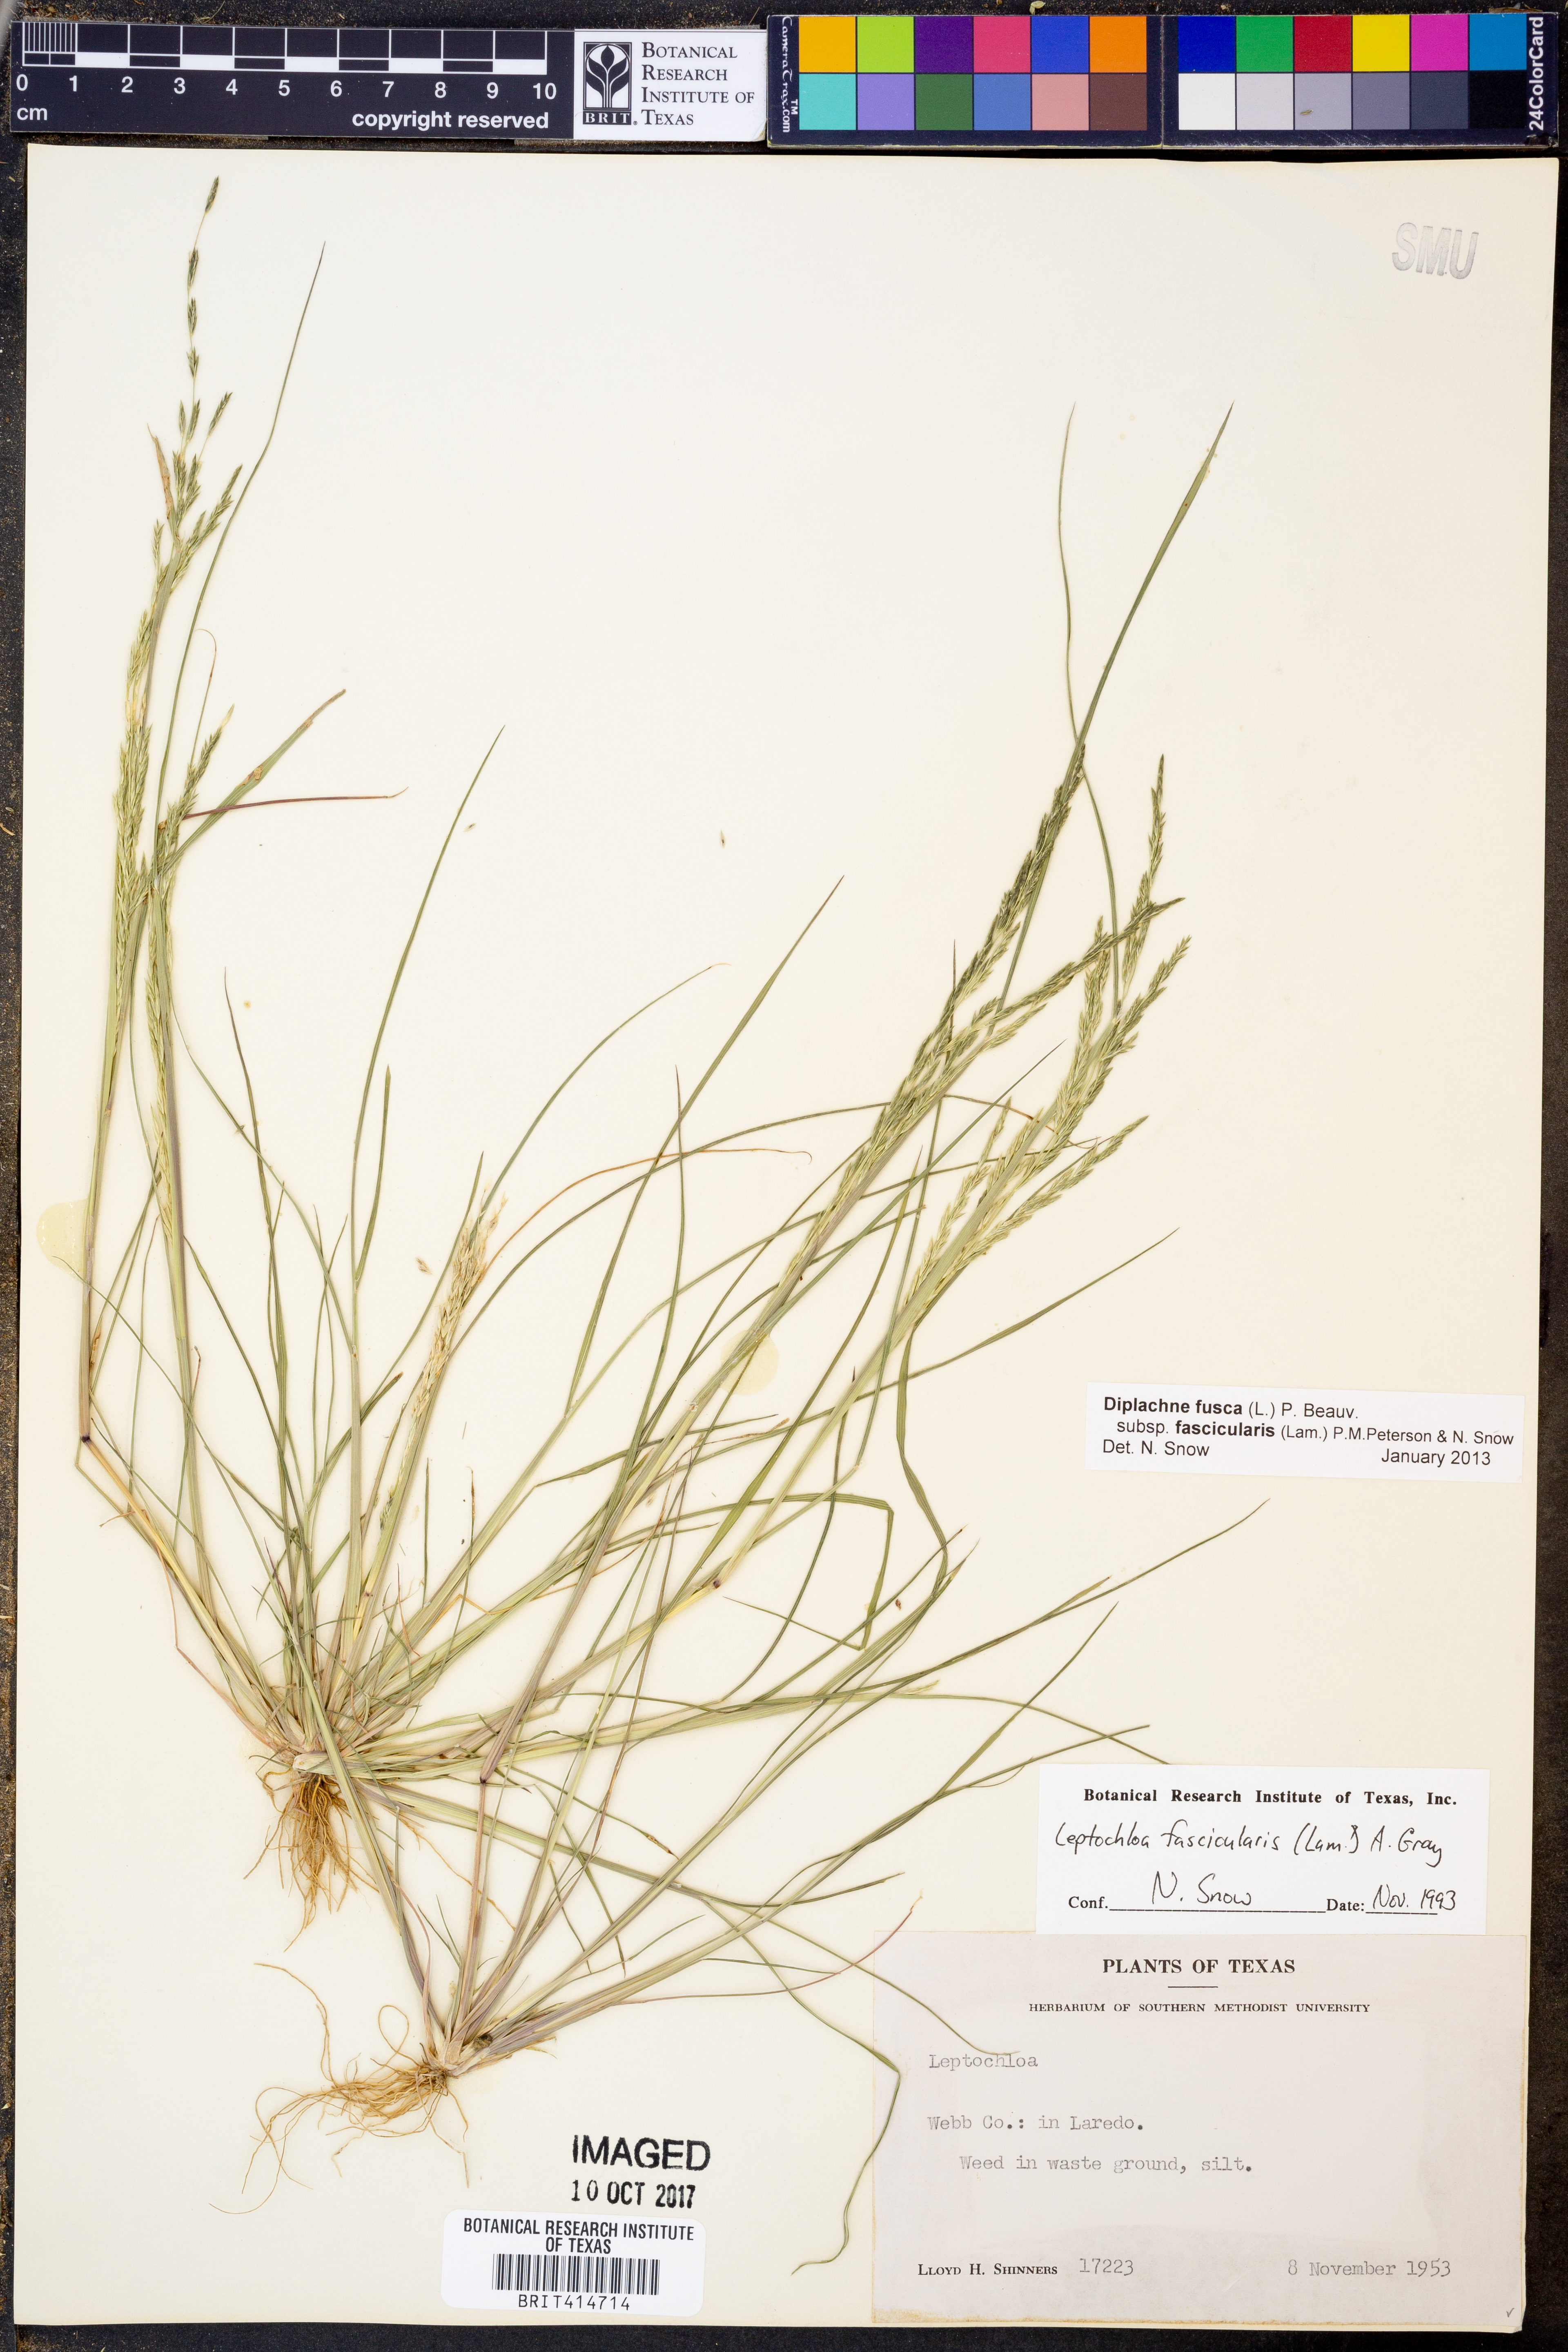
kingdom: Plantae
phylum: Tracheophyta
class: Liliopsida
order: Poales
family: Poaceae
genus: Leptochloa
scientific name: Leptochloa
